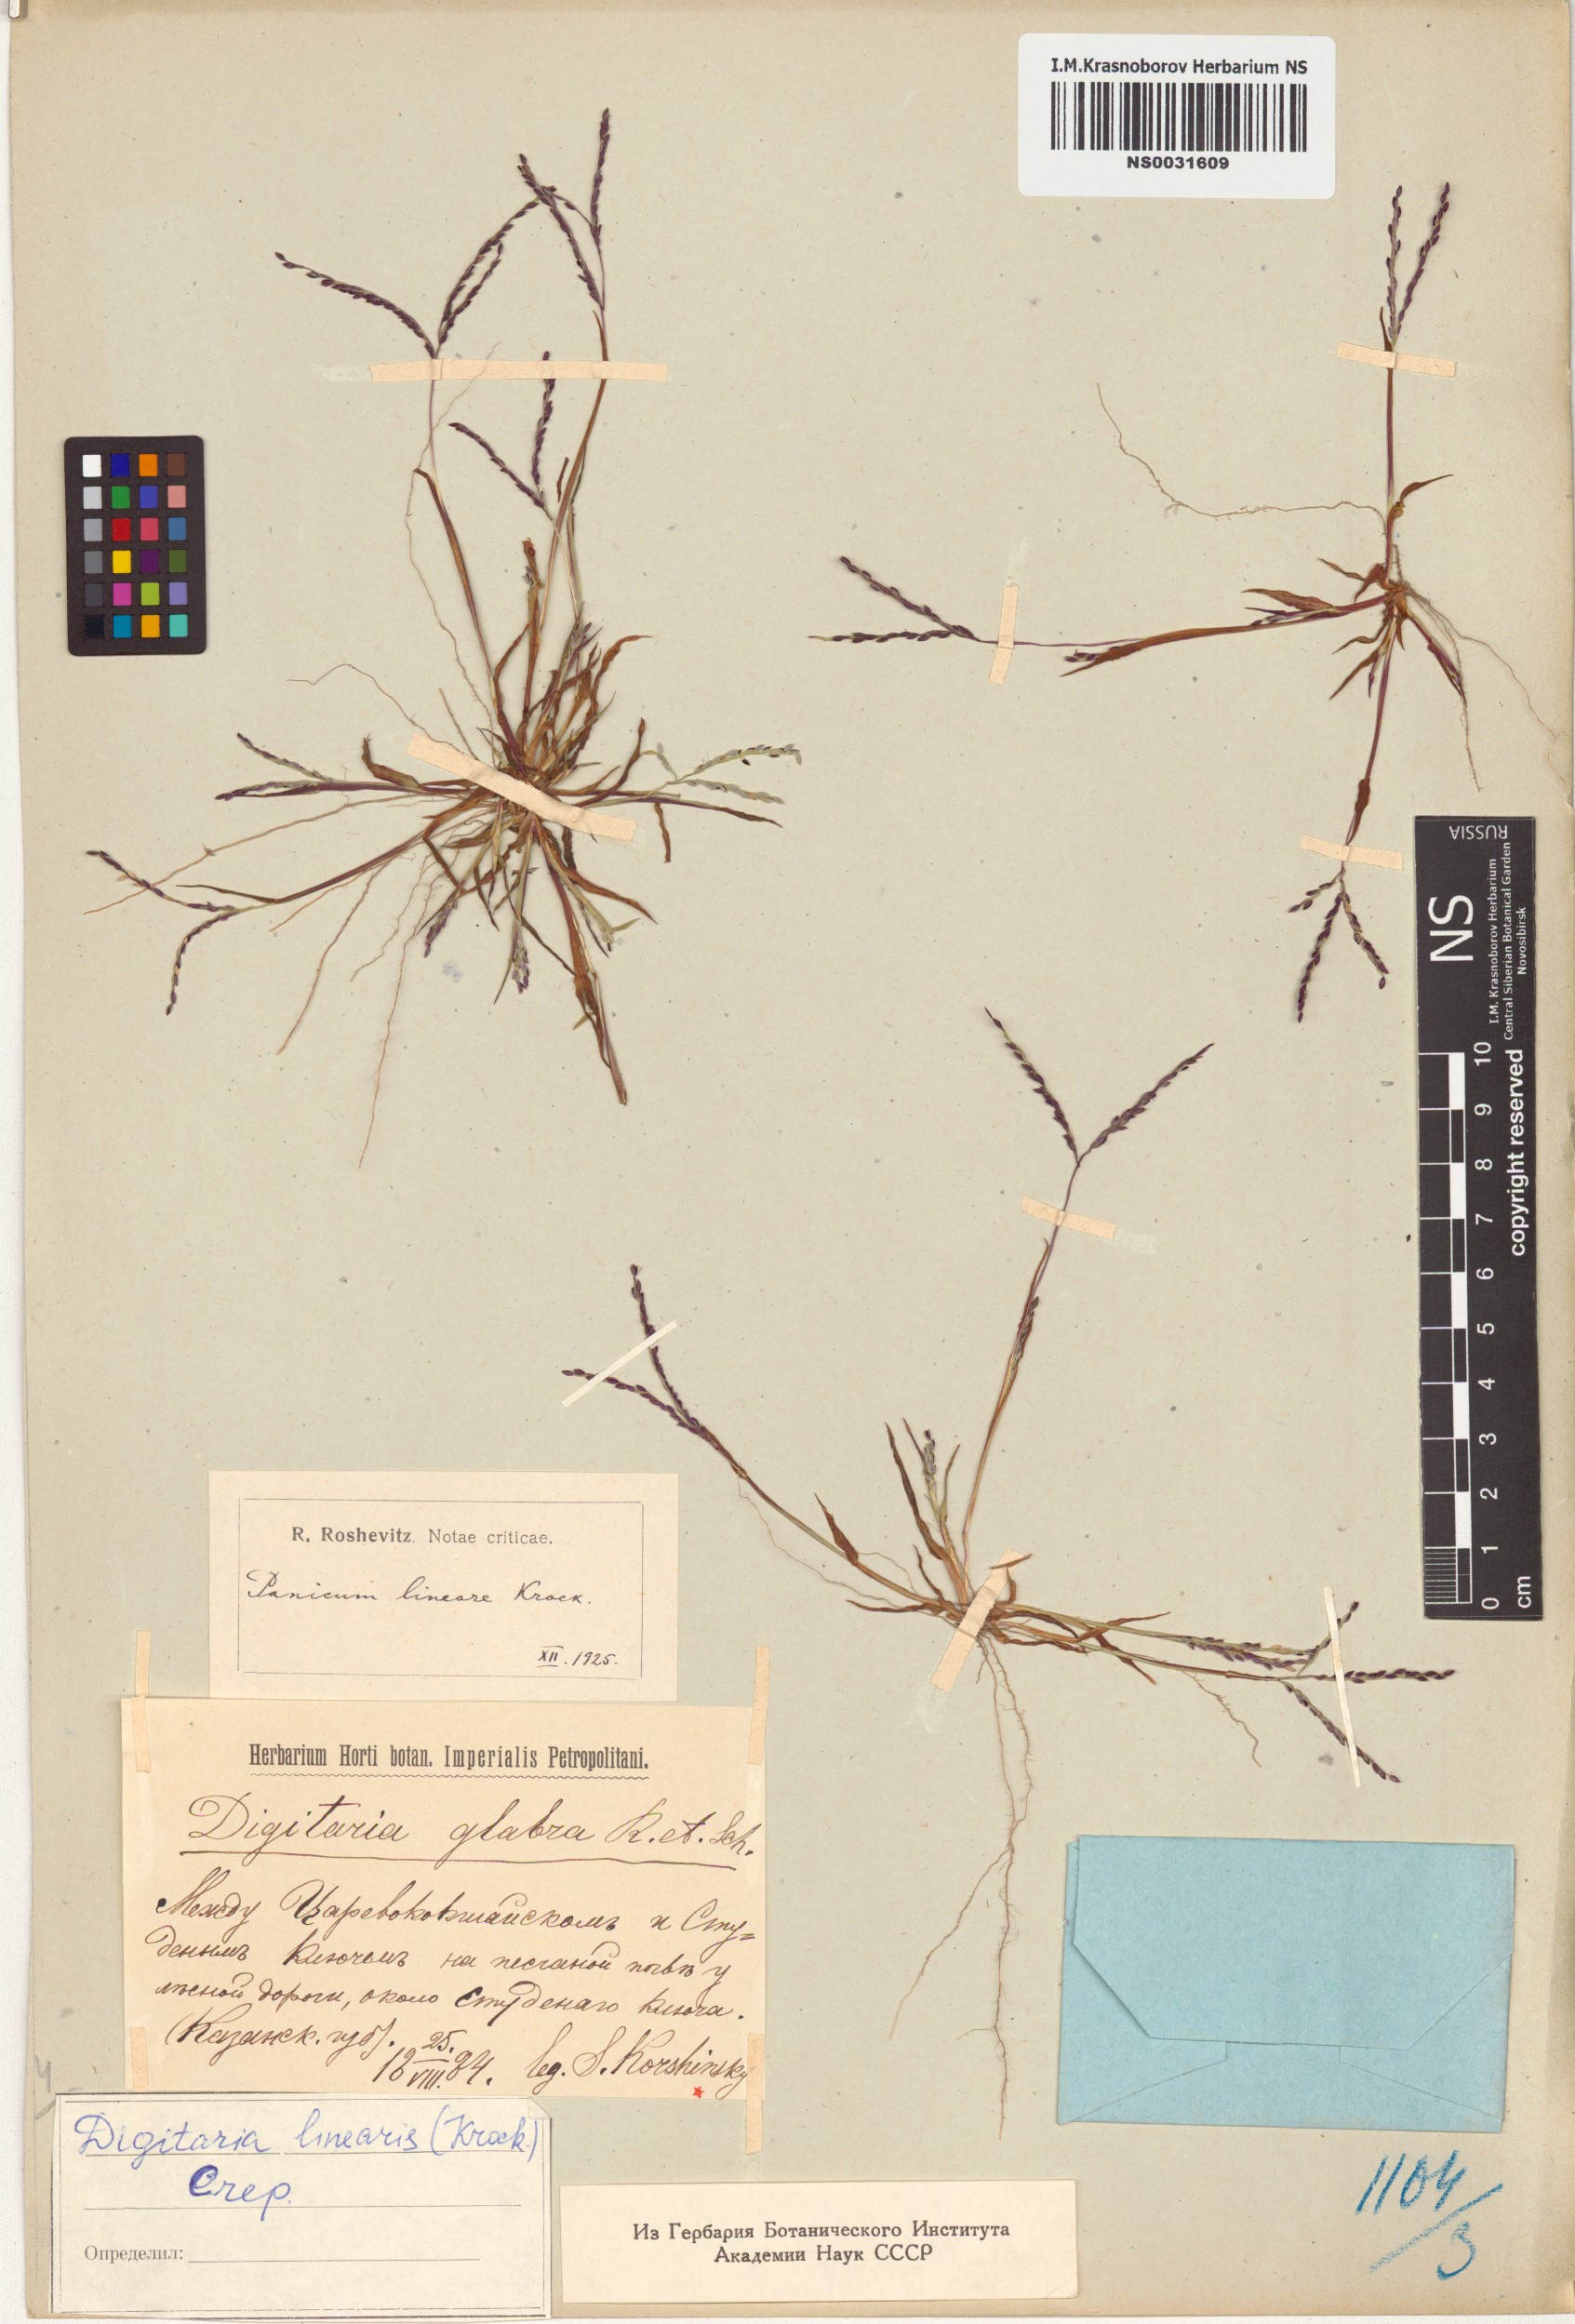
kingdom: Plantae
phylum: Tracheophyta
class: Liliopsida
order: Poales
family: Poaceae
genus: Digitaria
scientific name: Digitaria ischaemum
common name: Smooth crabgrass
